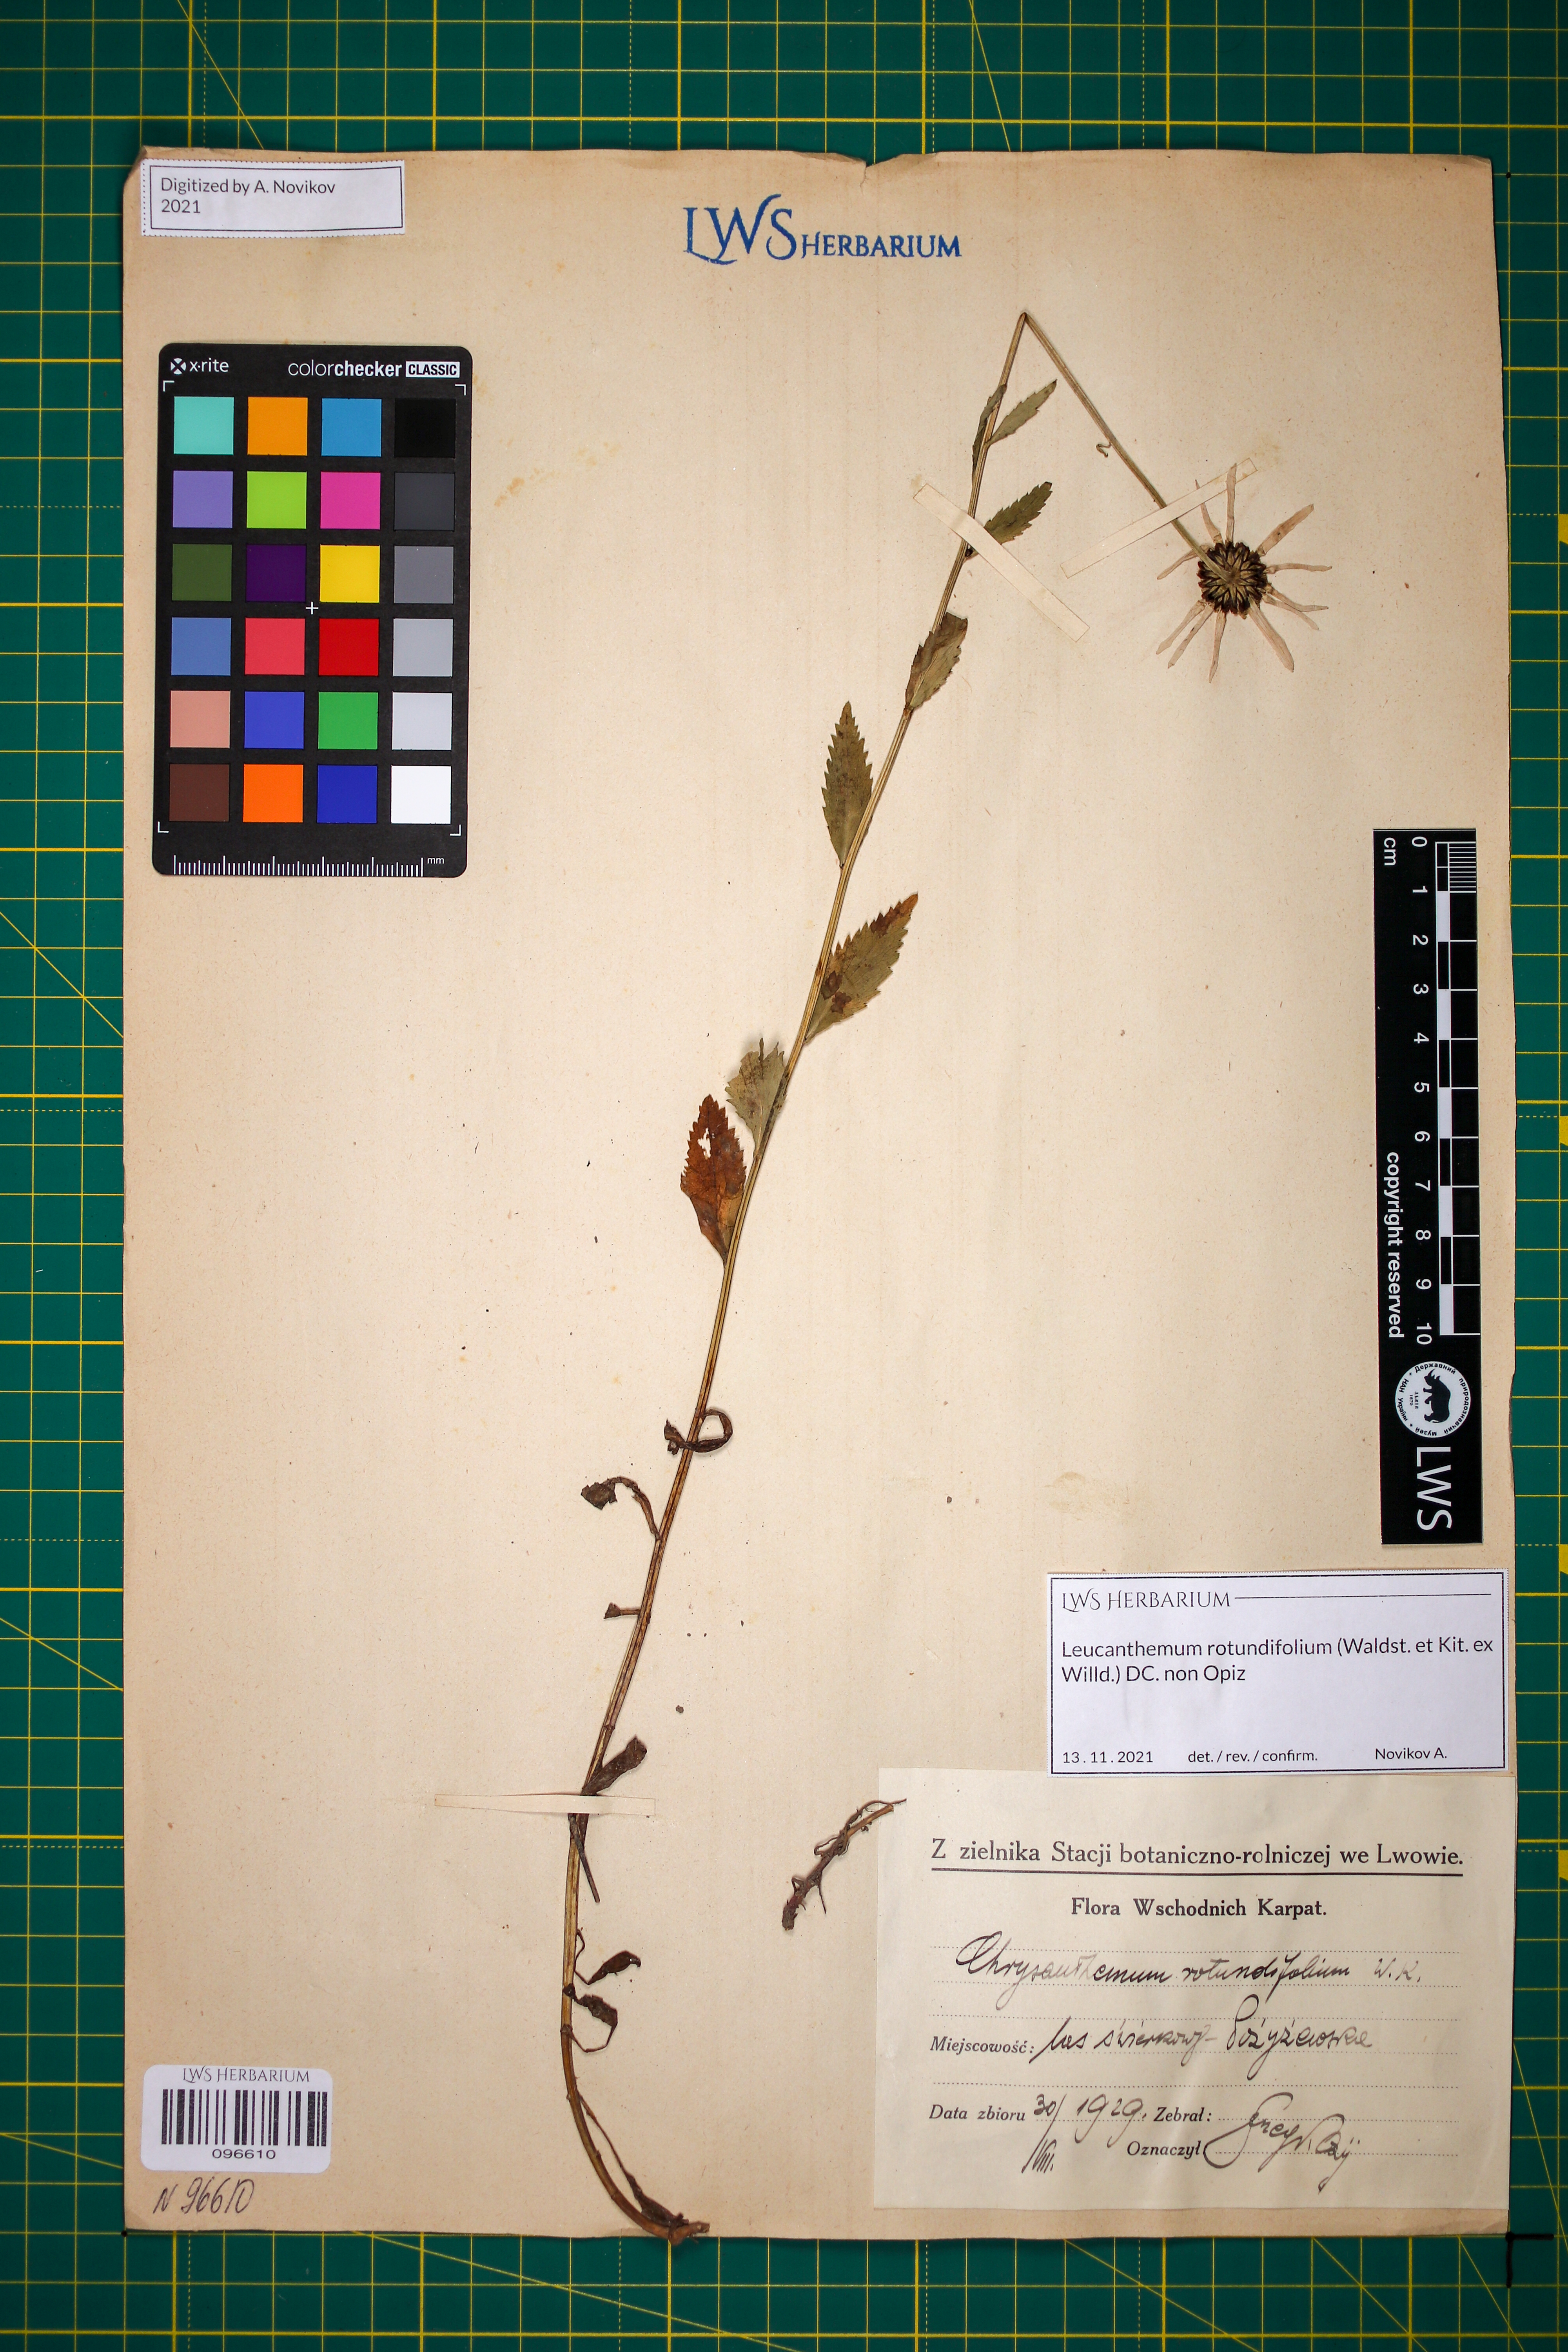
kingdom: Plantae
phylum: Tracheophyta
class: Magnoliopsida
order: Asterales
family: Asteraceae
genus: Leucanthemum
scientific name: Leucanthemum rotundifolium
